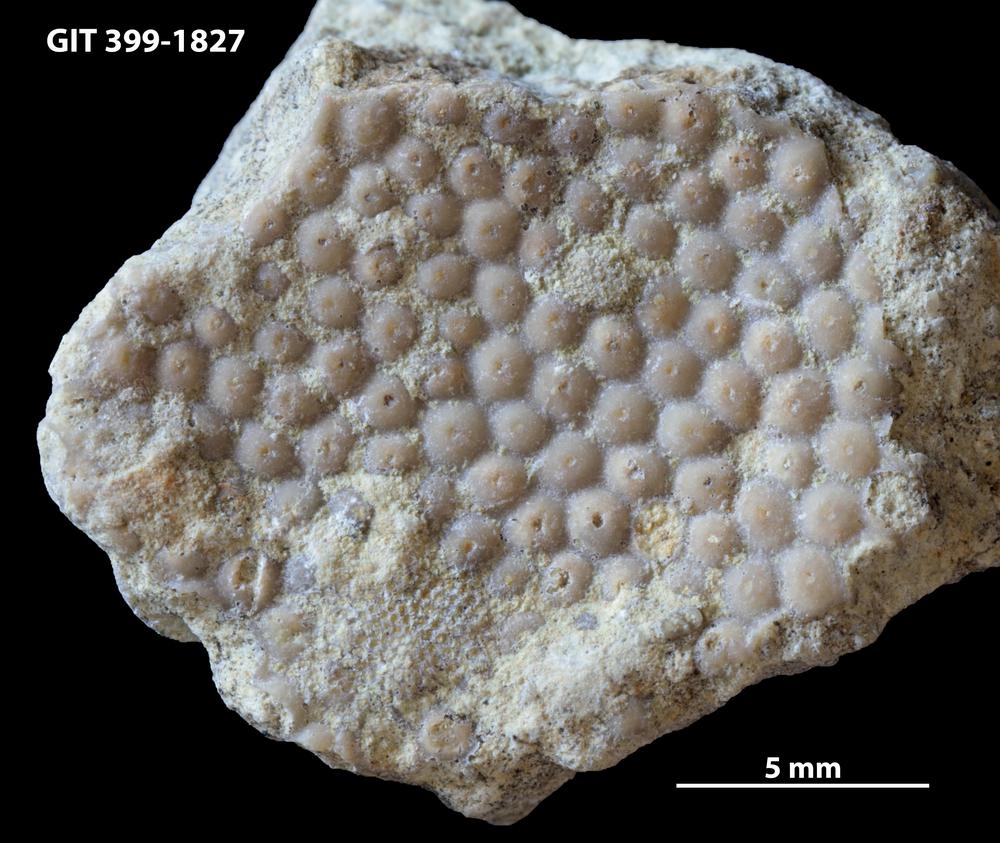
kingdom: Plantae
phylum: Chlorophyta
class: Ulvophyceae
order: Cyclocrinales
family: Cyclocrinaceae
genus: Mastopora
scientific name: Mastopora concava
